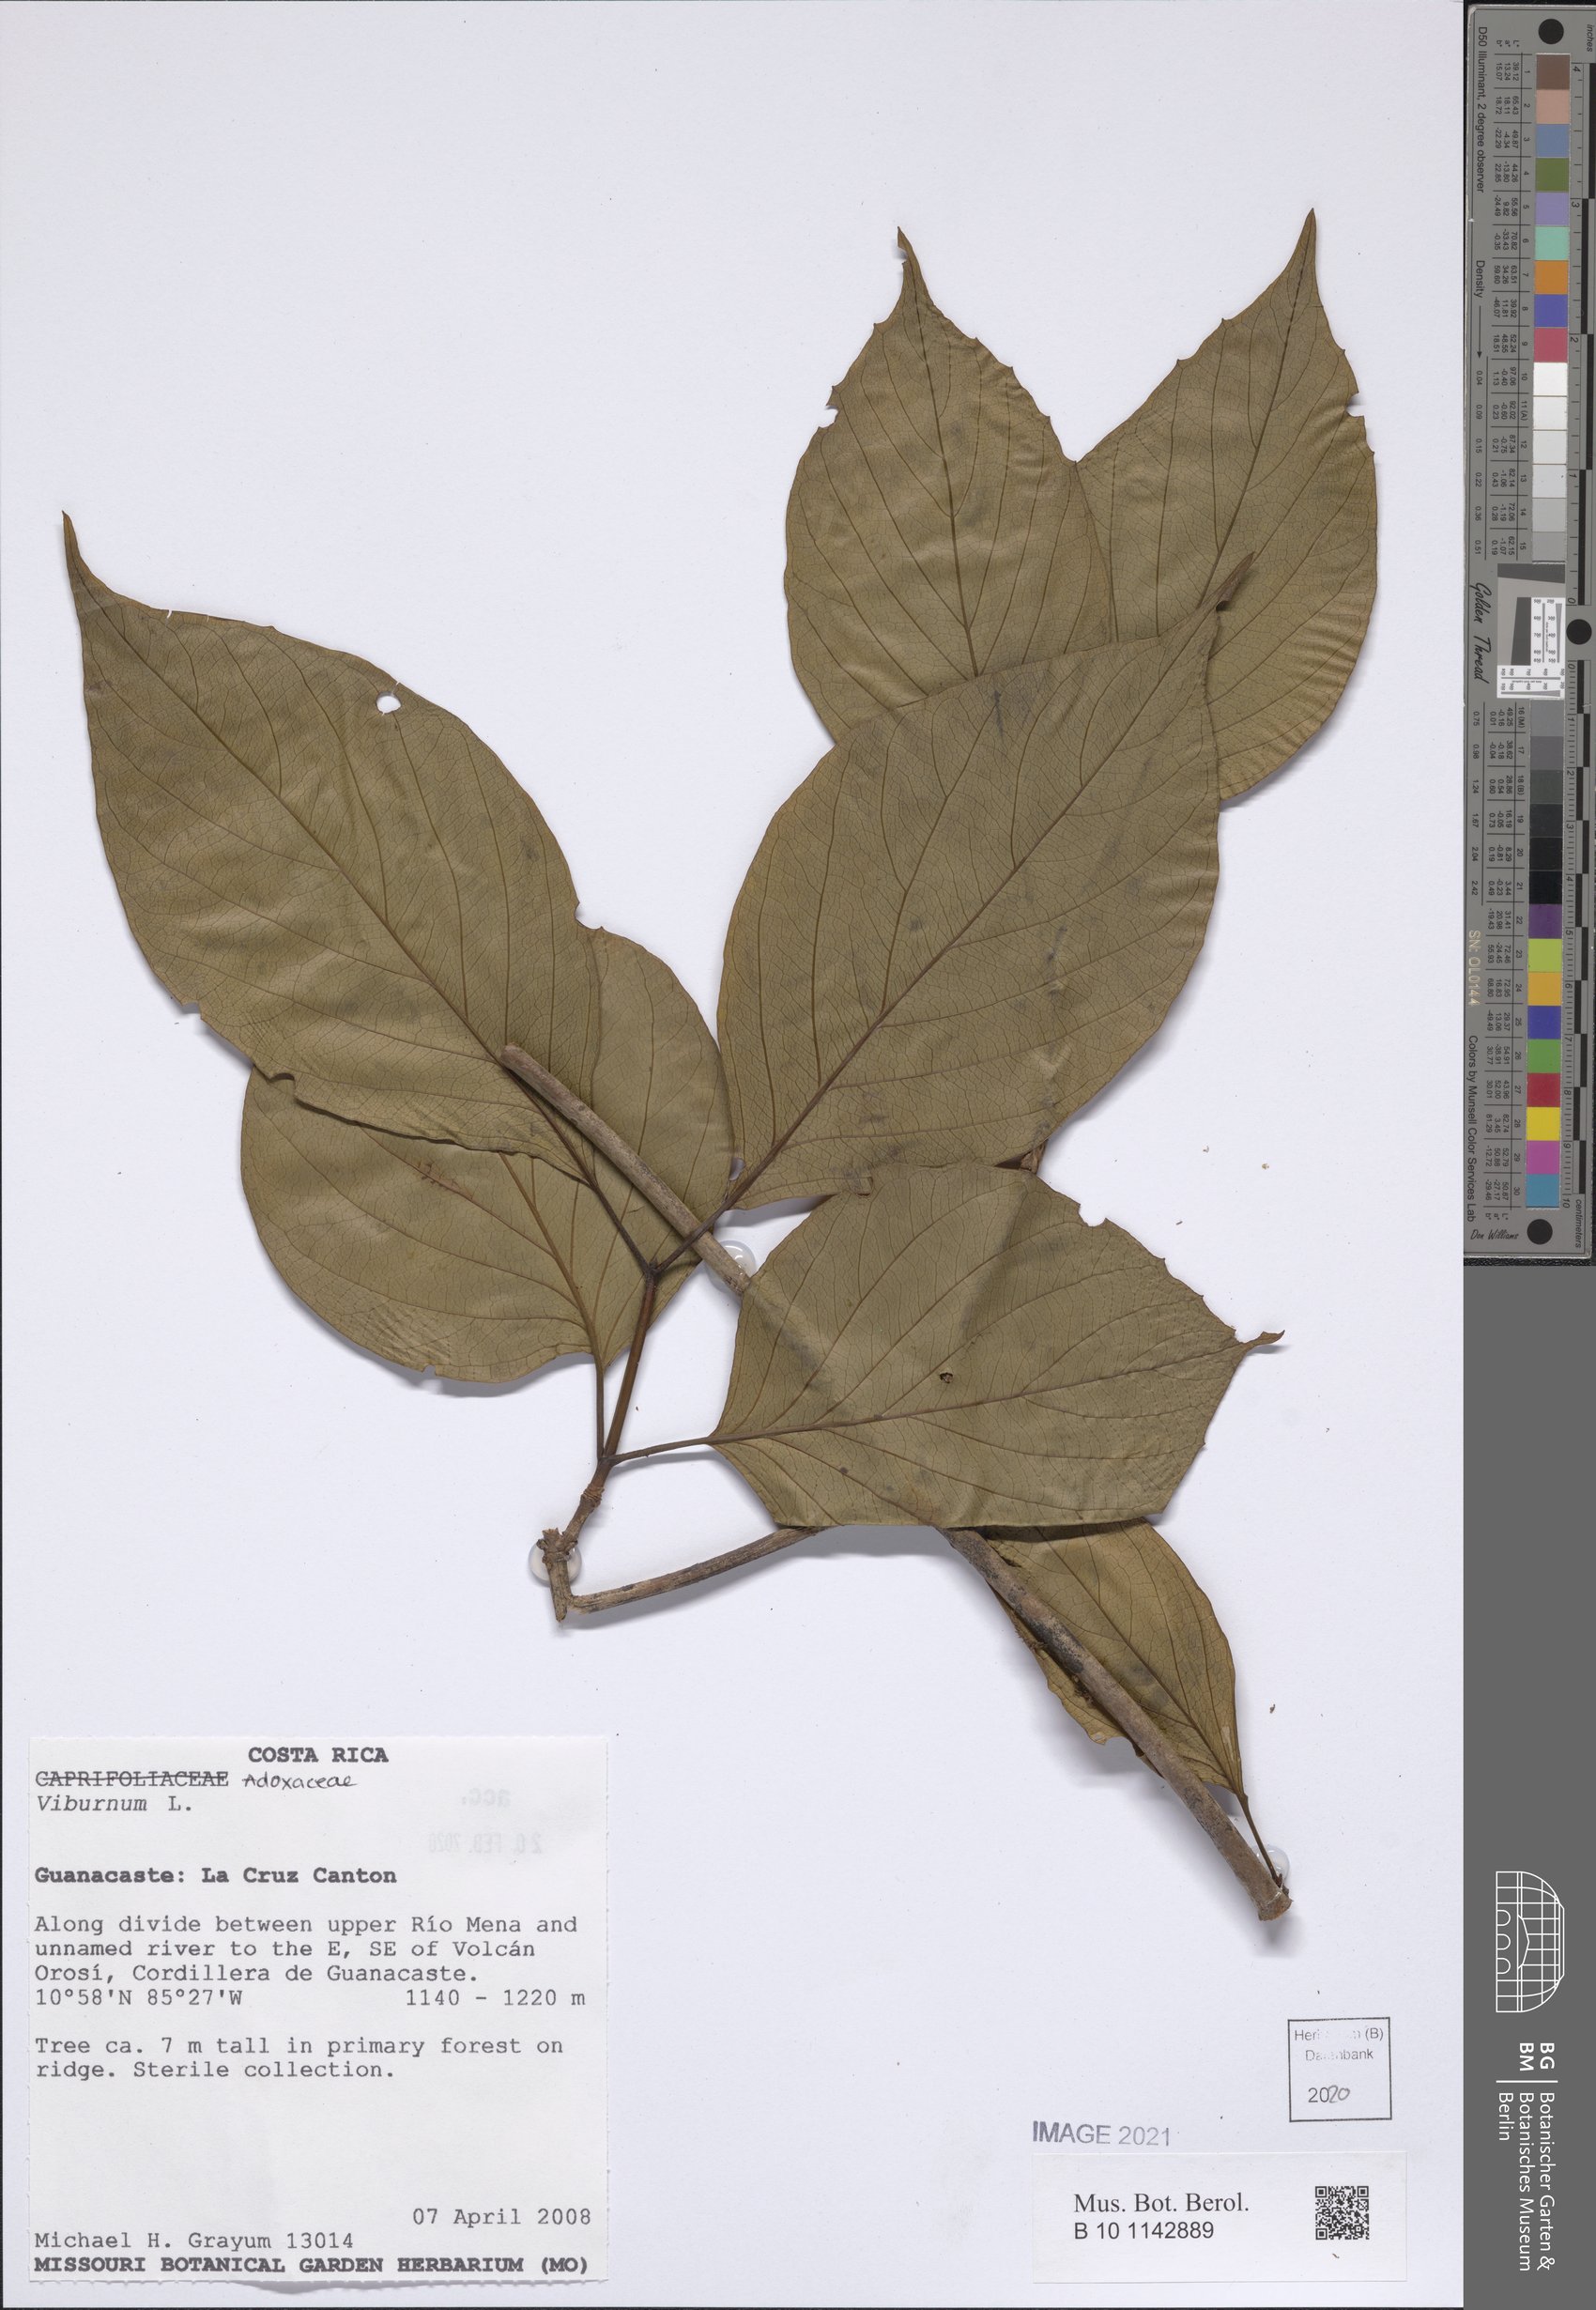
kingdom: Plantae
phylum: Tracheophyta
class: Magnoliopsida
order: Dipsacales
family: Viburnaceae
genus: Viburnum
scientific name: Viburnum
